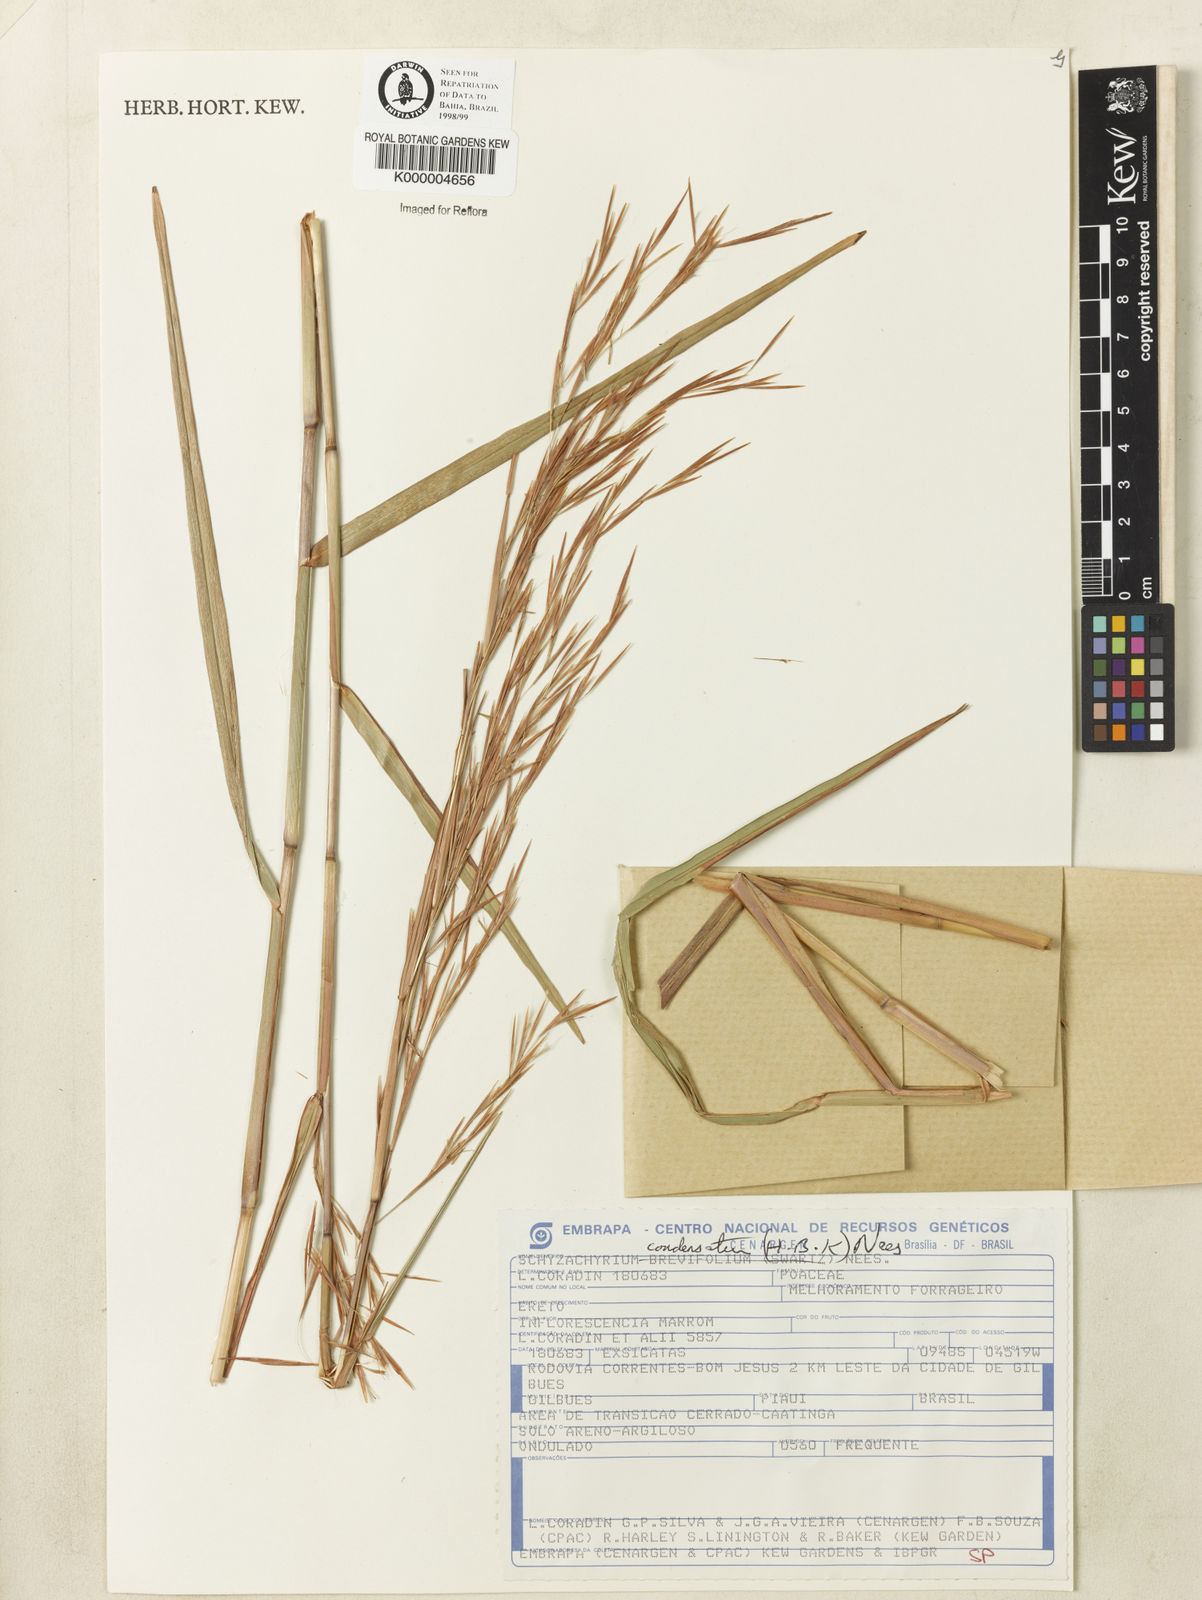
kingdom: Plantae
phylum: Tracheophyta
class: Liliopsida
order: Poales
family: Poaceae
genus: Schizachyrium
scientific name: Schizachyrium condensatum
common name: Bush beardgrass
